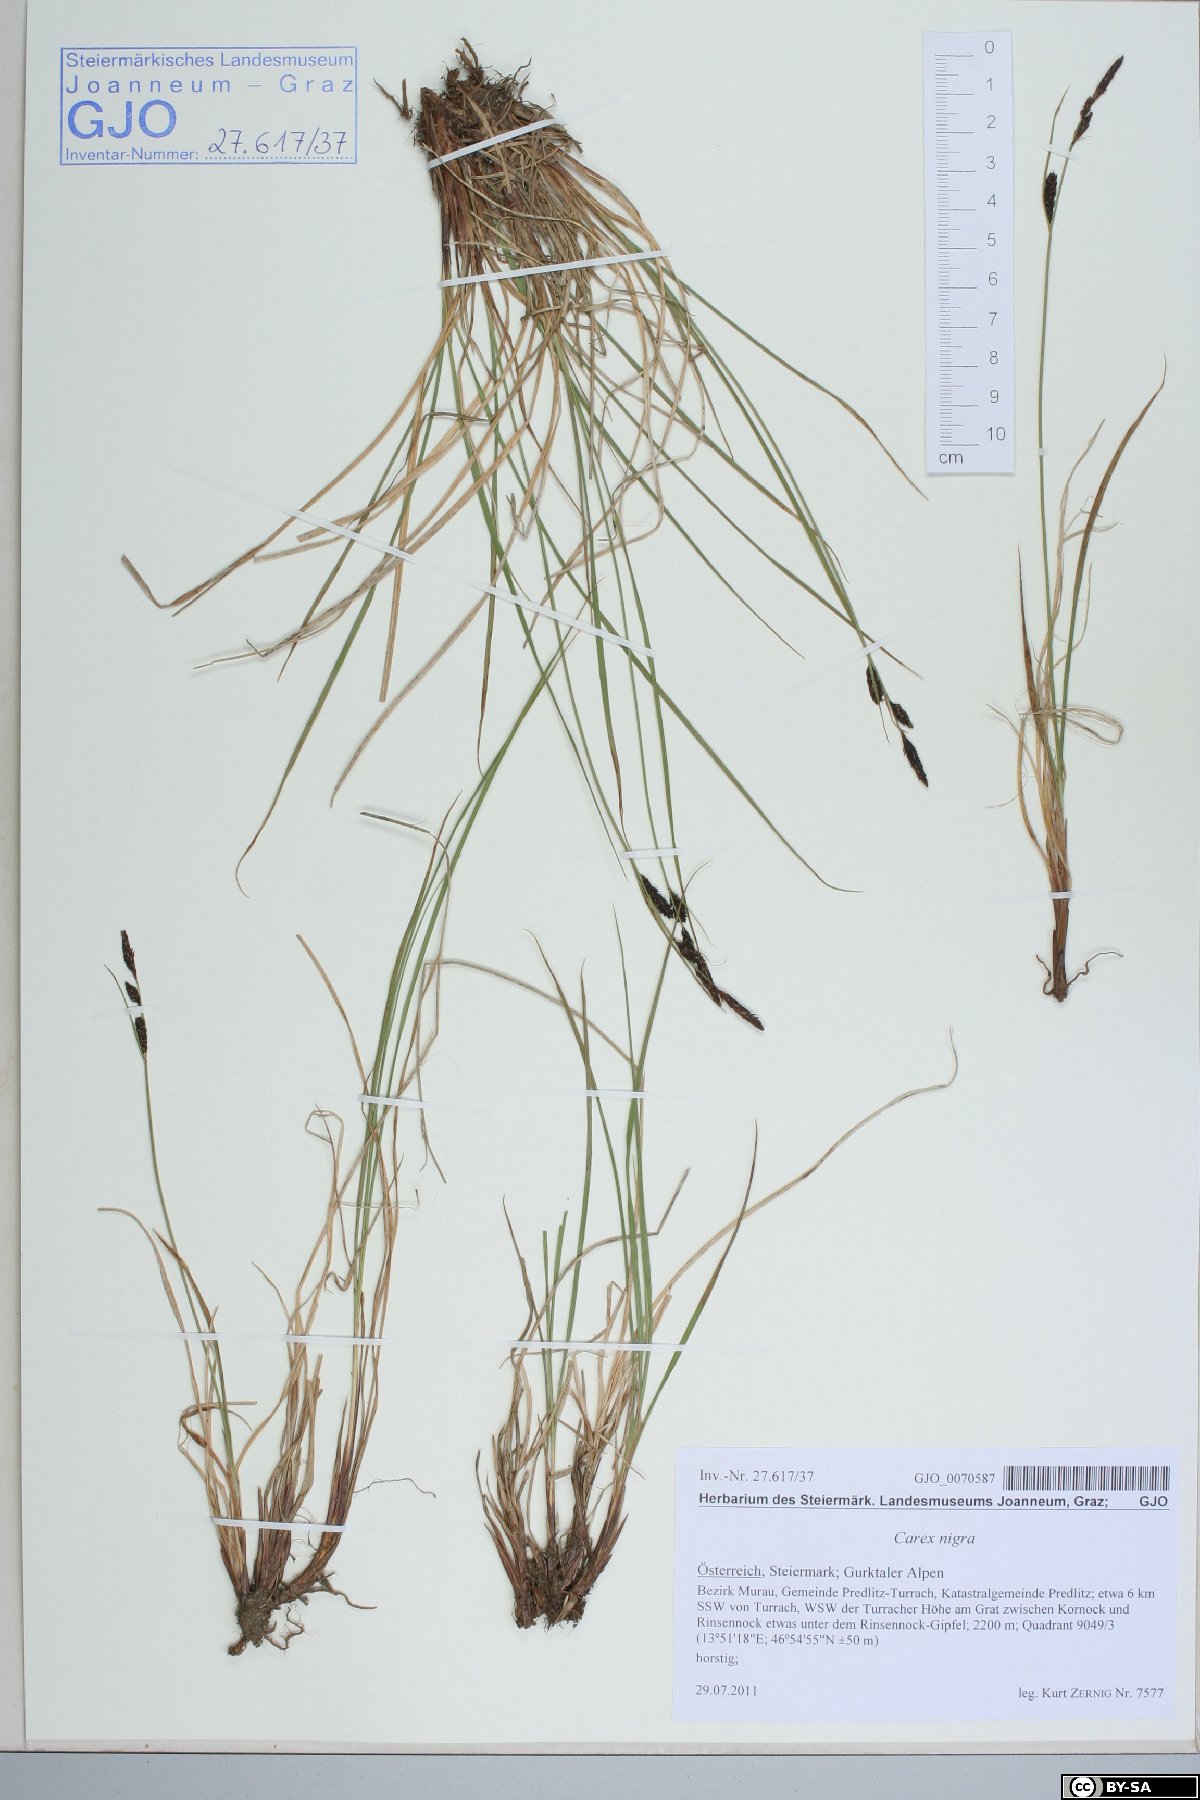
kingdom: Plantae
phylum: Tracheophyta
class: Liliopsida
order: Poales
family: Cyperaceae
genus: Carex
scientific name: Carex nigra
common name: Common sedge
